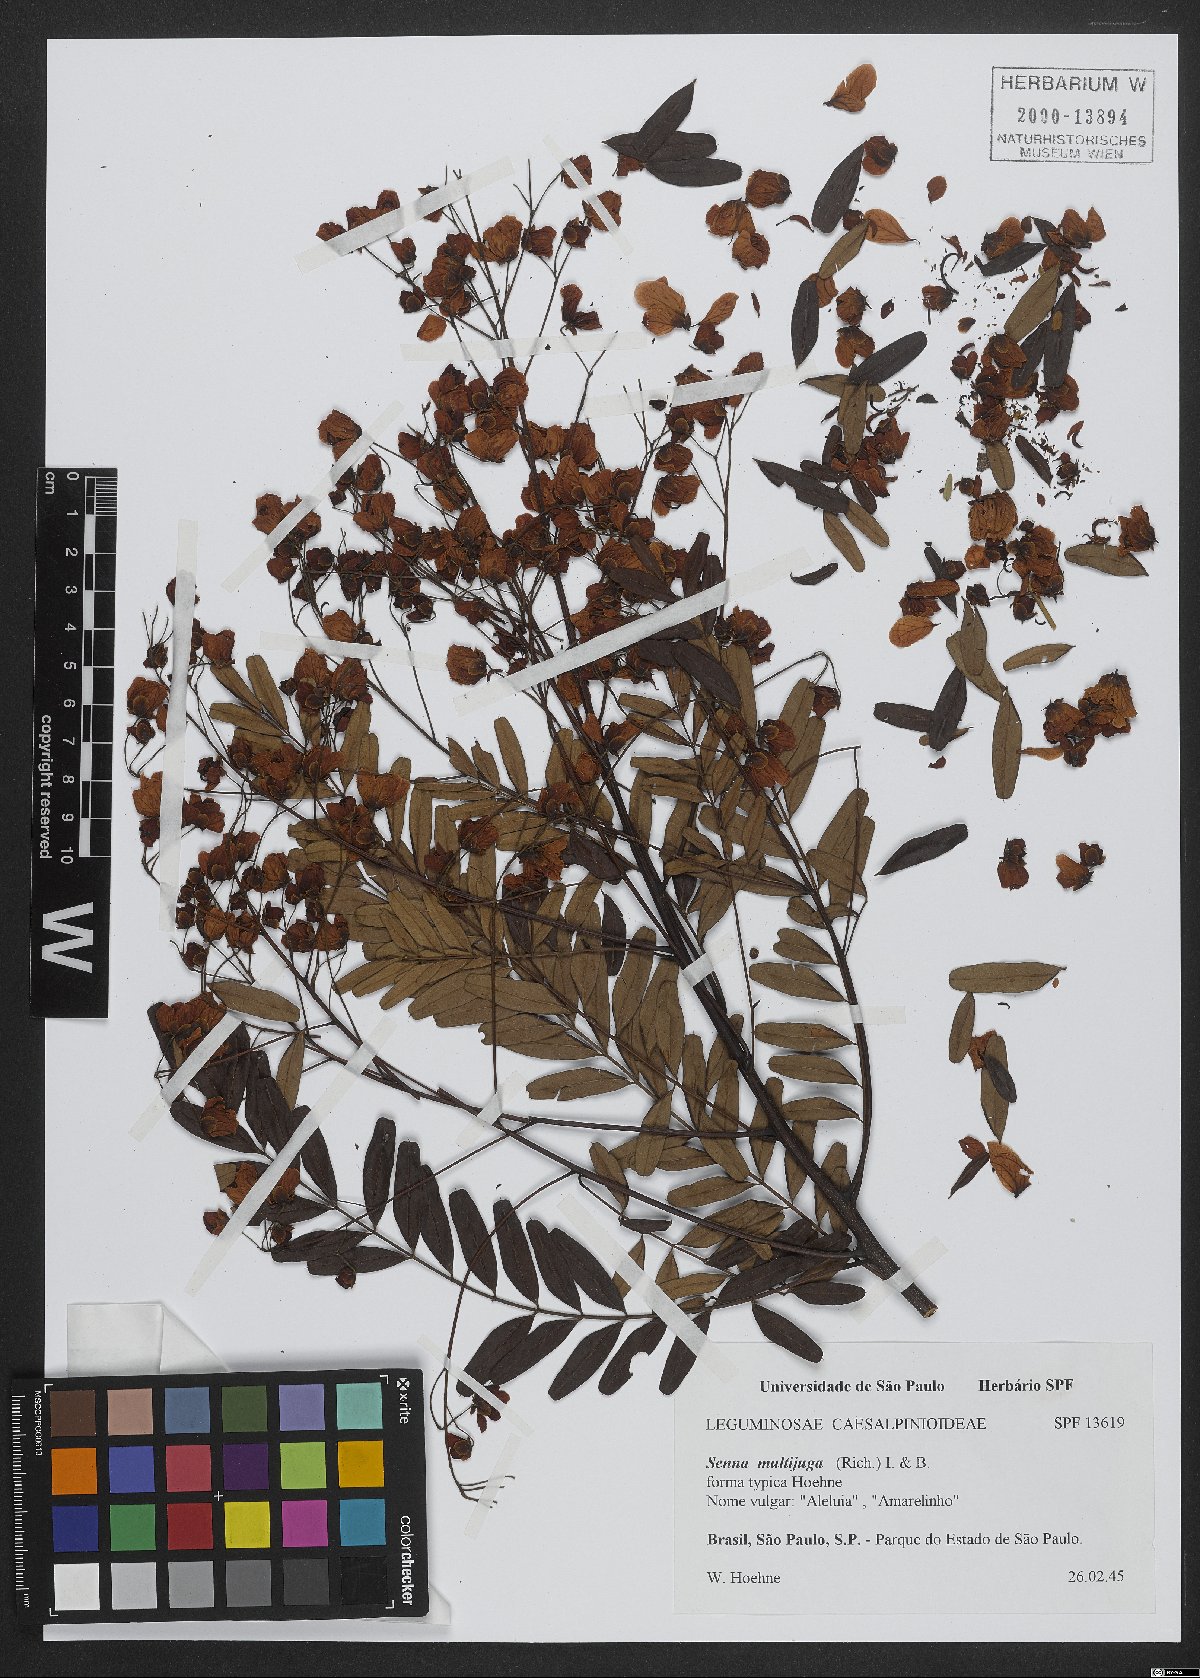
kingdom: Plantae
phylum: Tracheophyta
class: Magnoliopsida
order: Fabales
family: Fabaceae
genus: Senna
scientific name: Senna multijuga
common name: False sicklepod
